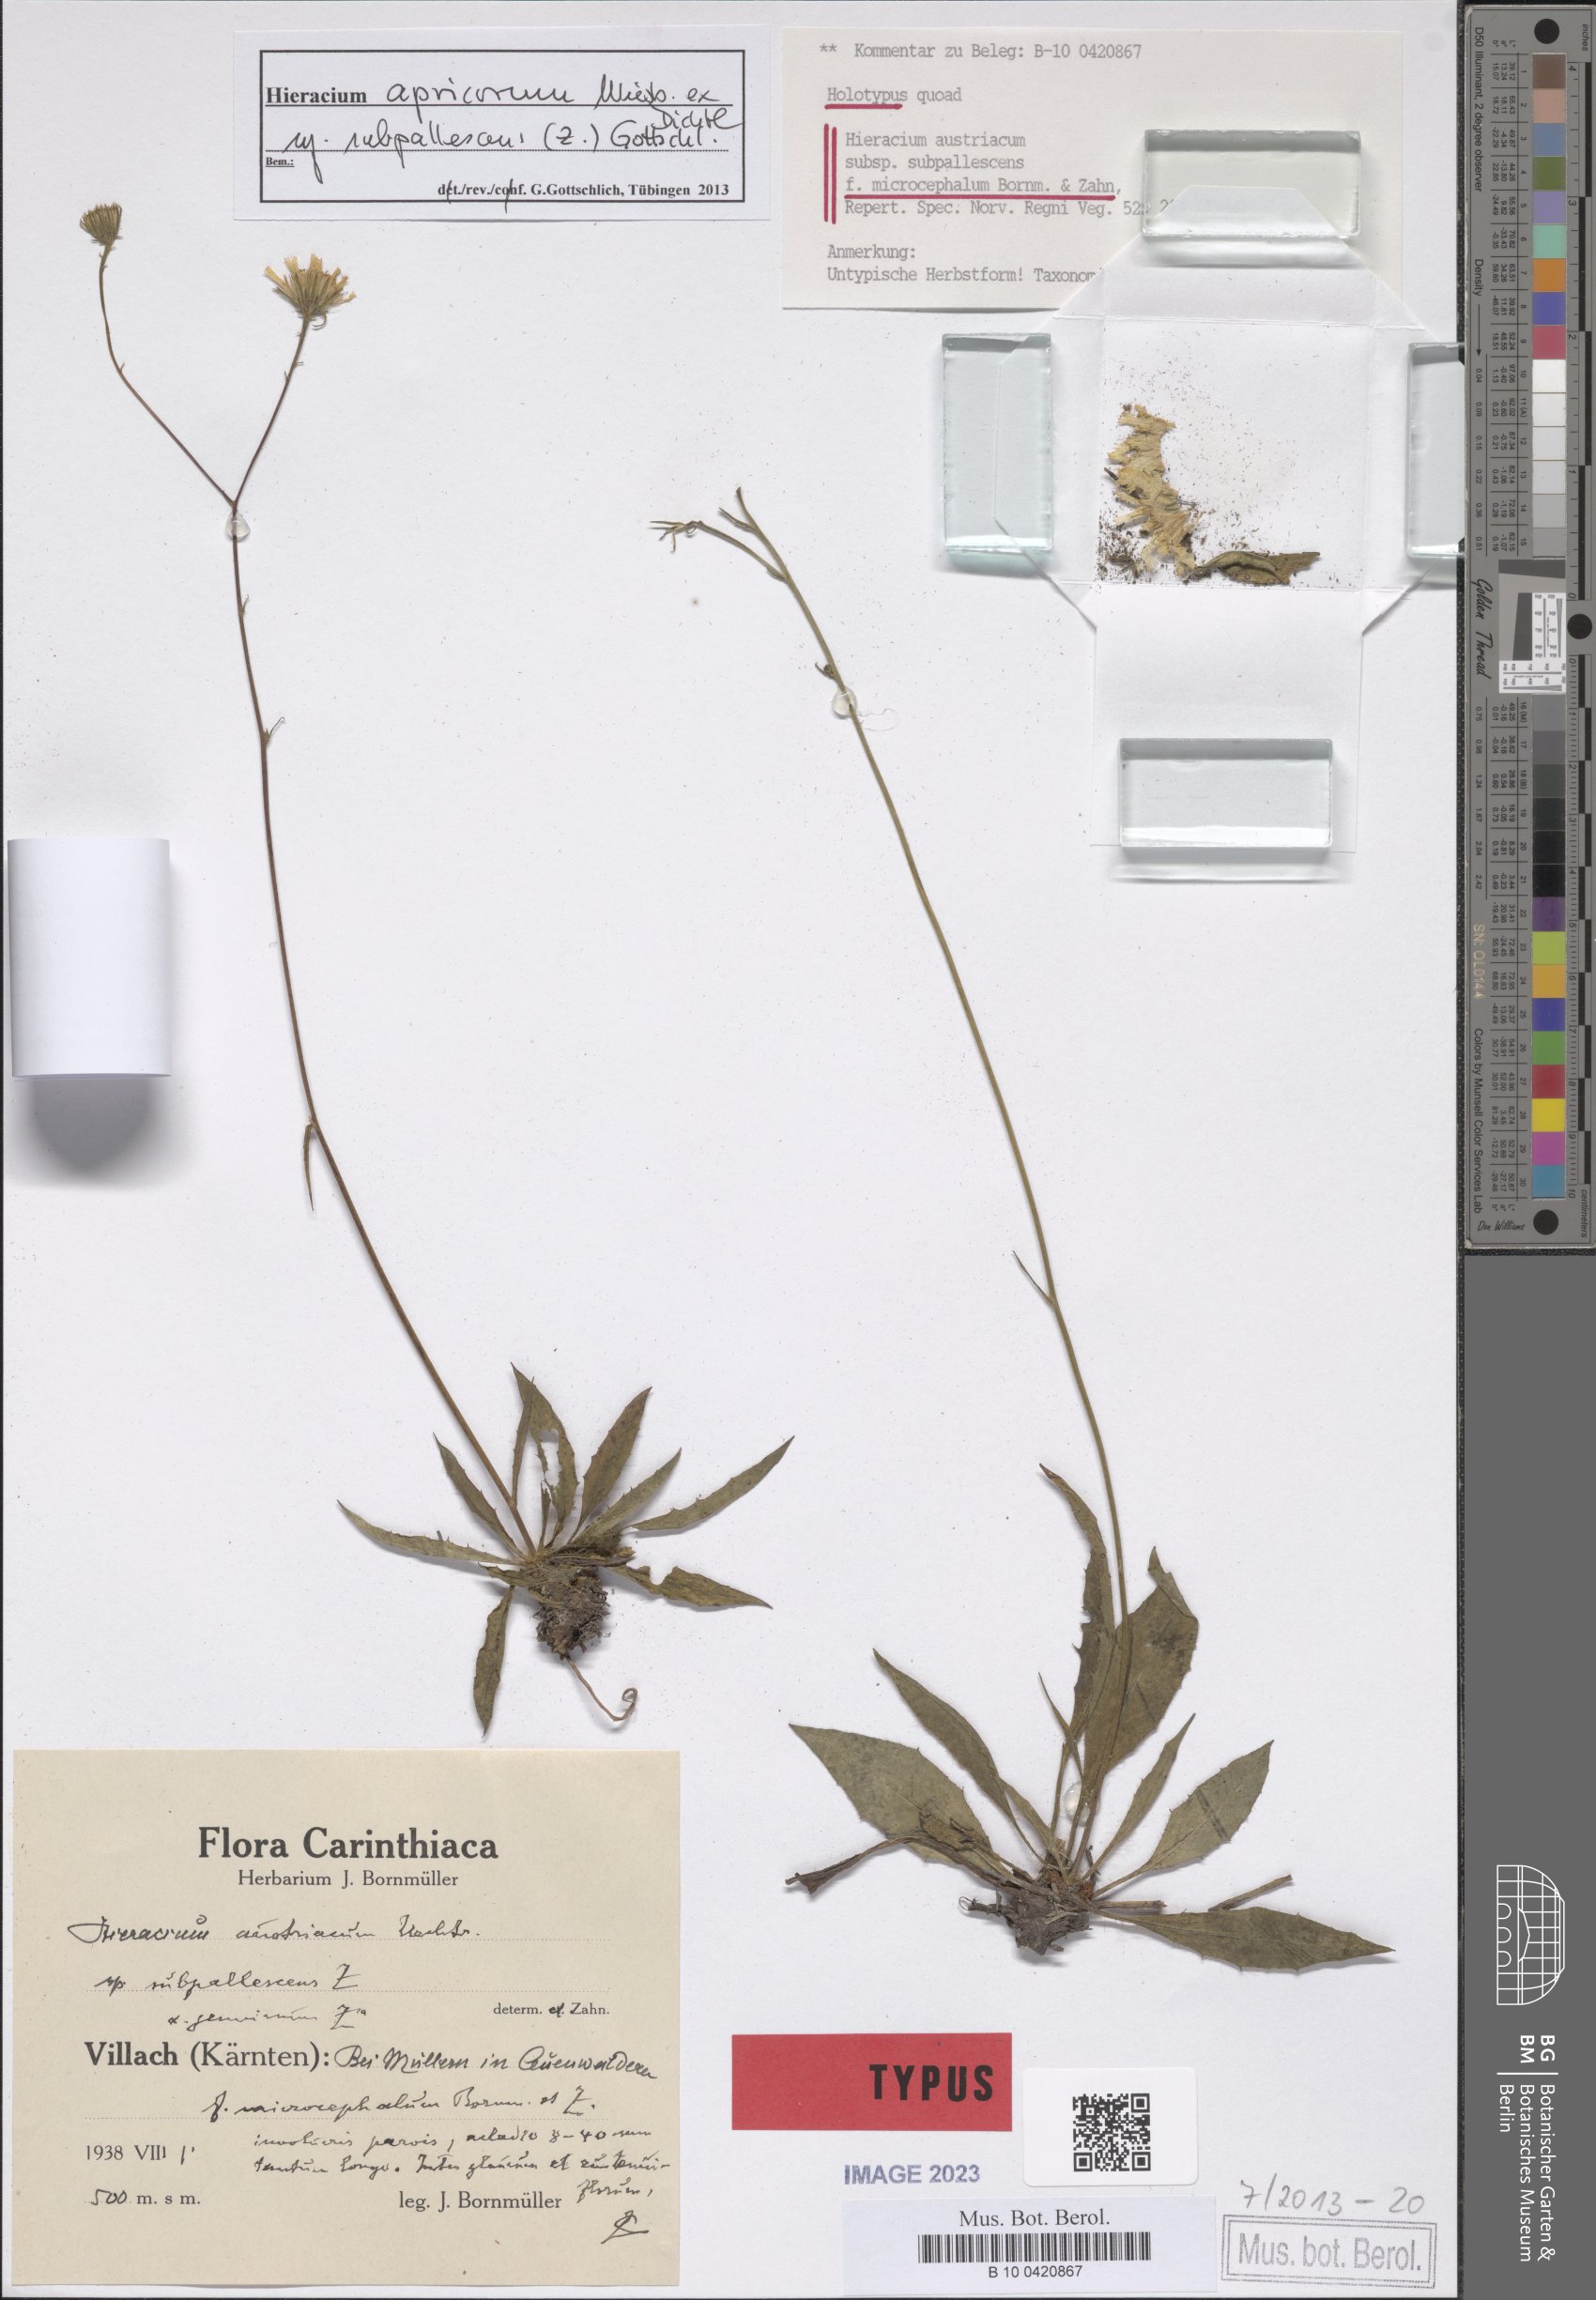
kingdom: Plantae
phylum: Tracheophyta
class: Magnoliopsida
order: Asterales
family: Asteraceae
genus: Hieracium
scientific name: Hieracium austriacum
